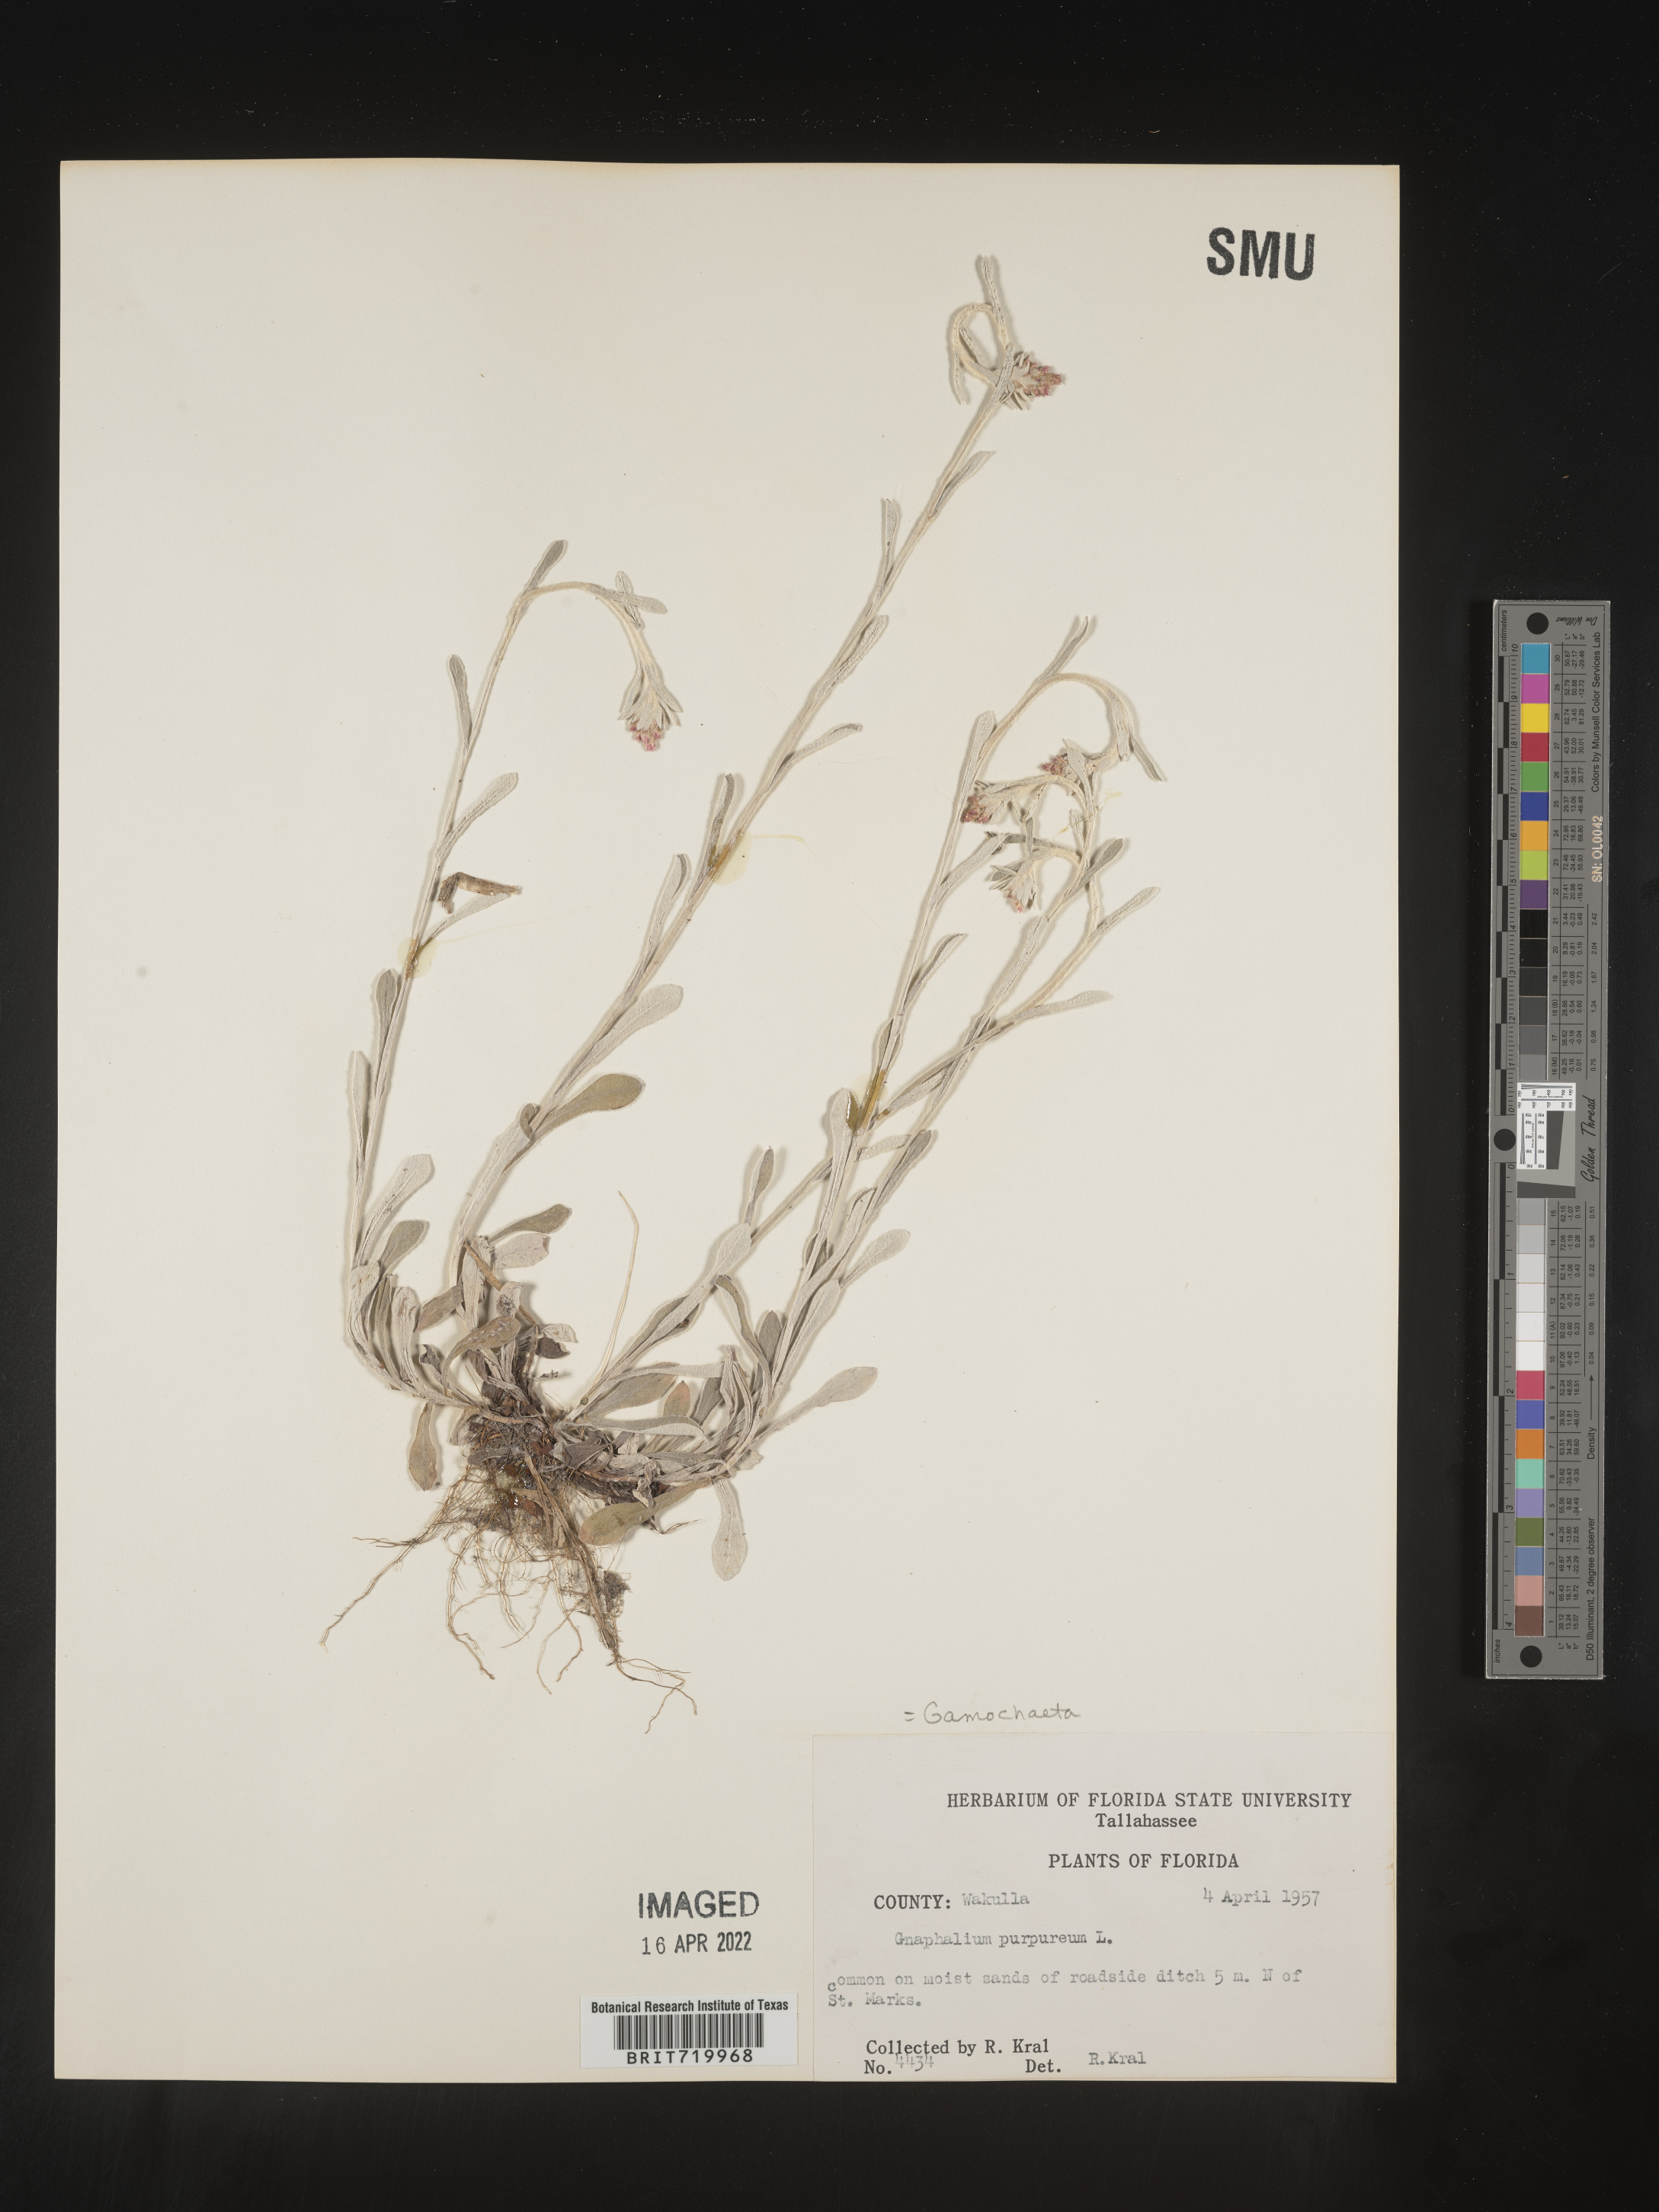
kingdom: Plantae
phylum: Tracheophyta
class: Magnoliopsida
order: Asterales
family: Asteraceae
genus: Gamochaeta
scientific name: Gamochaeta purpurea
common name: Purple cudweed
